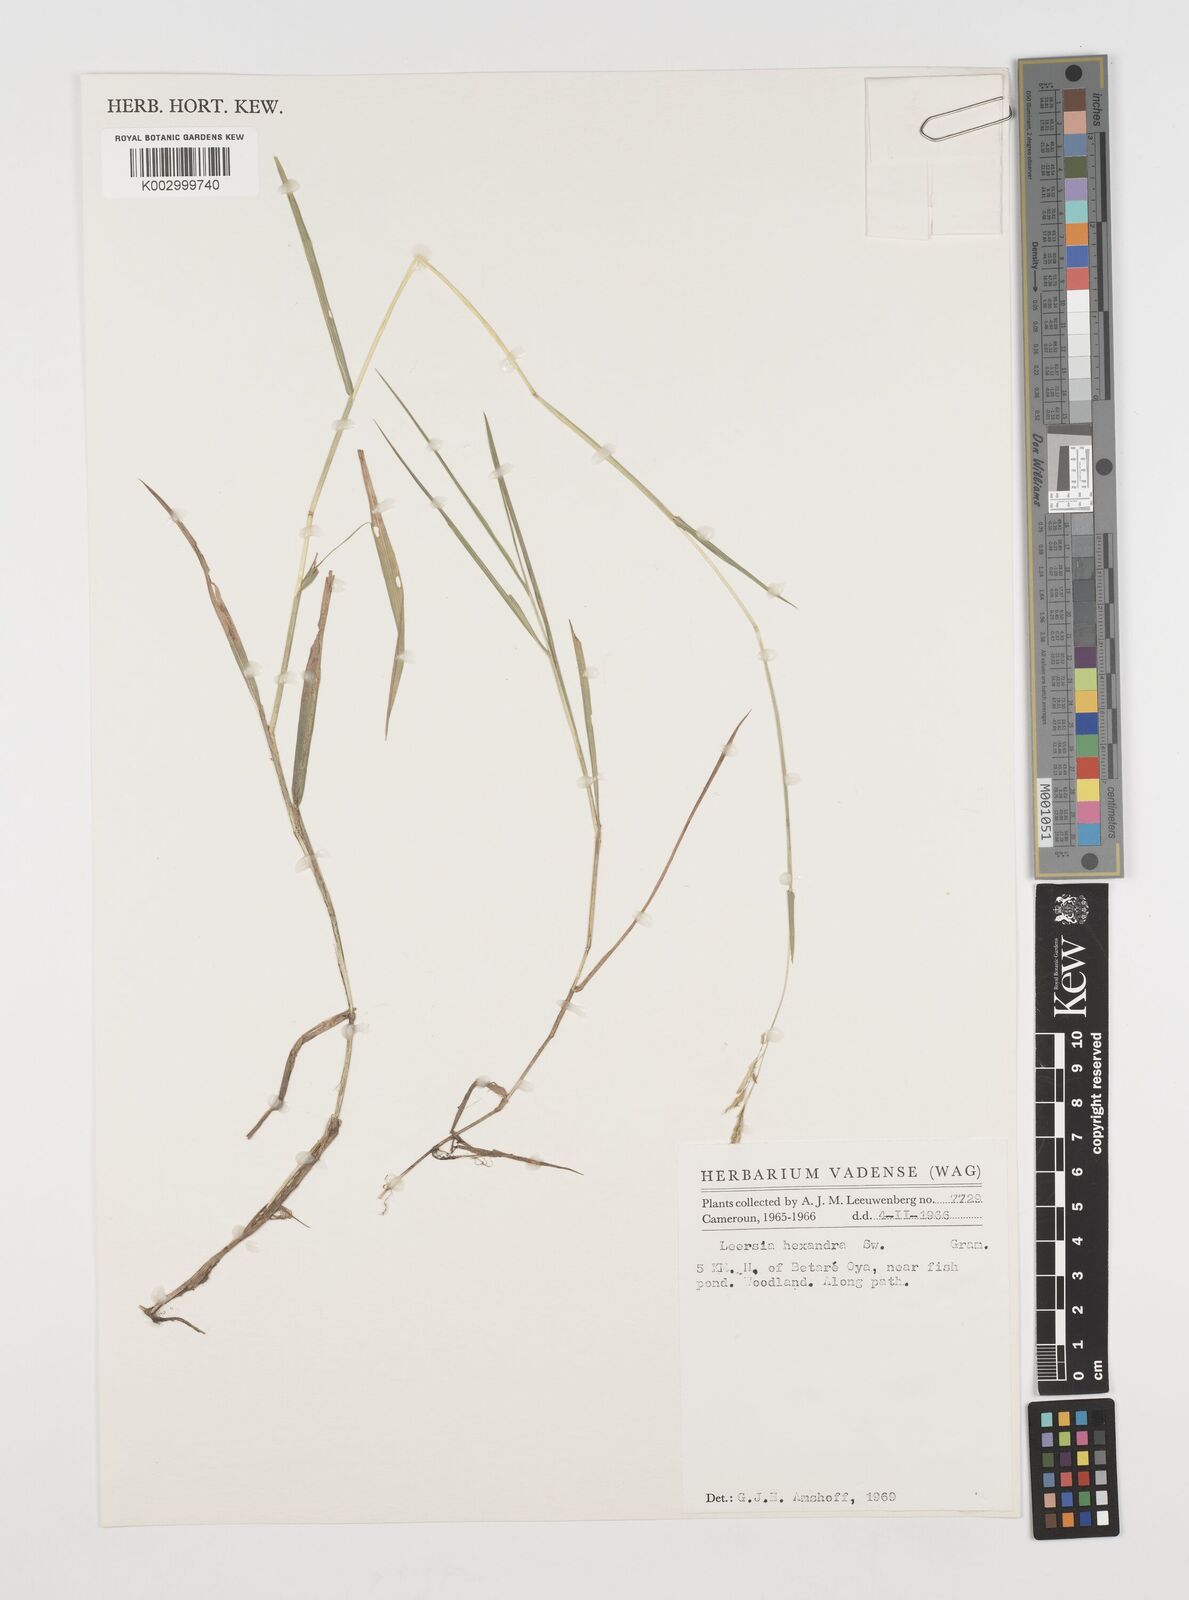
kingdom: Plantae
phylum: Tracheophyta
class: Liliopsida
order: Poales
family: Poaceae
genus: Leersia
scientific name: Leersia hexandra
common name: Southern cut grass
